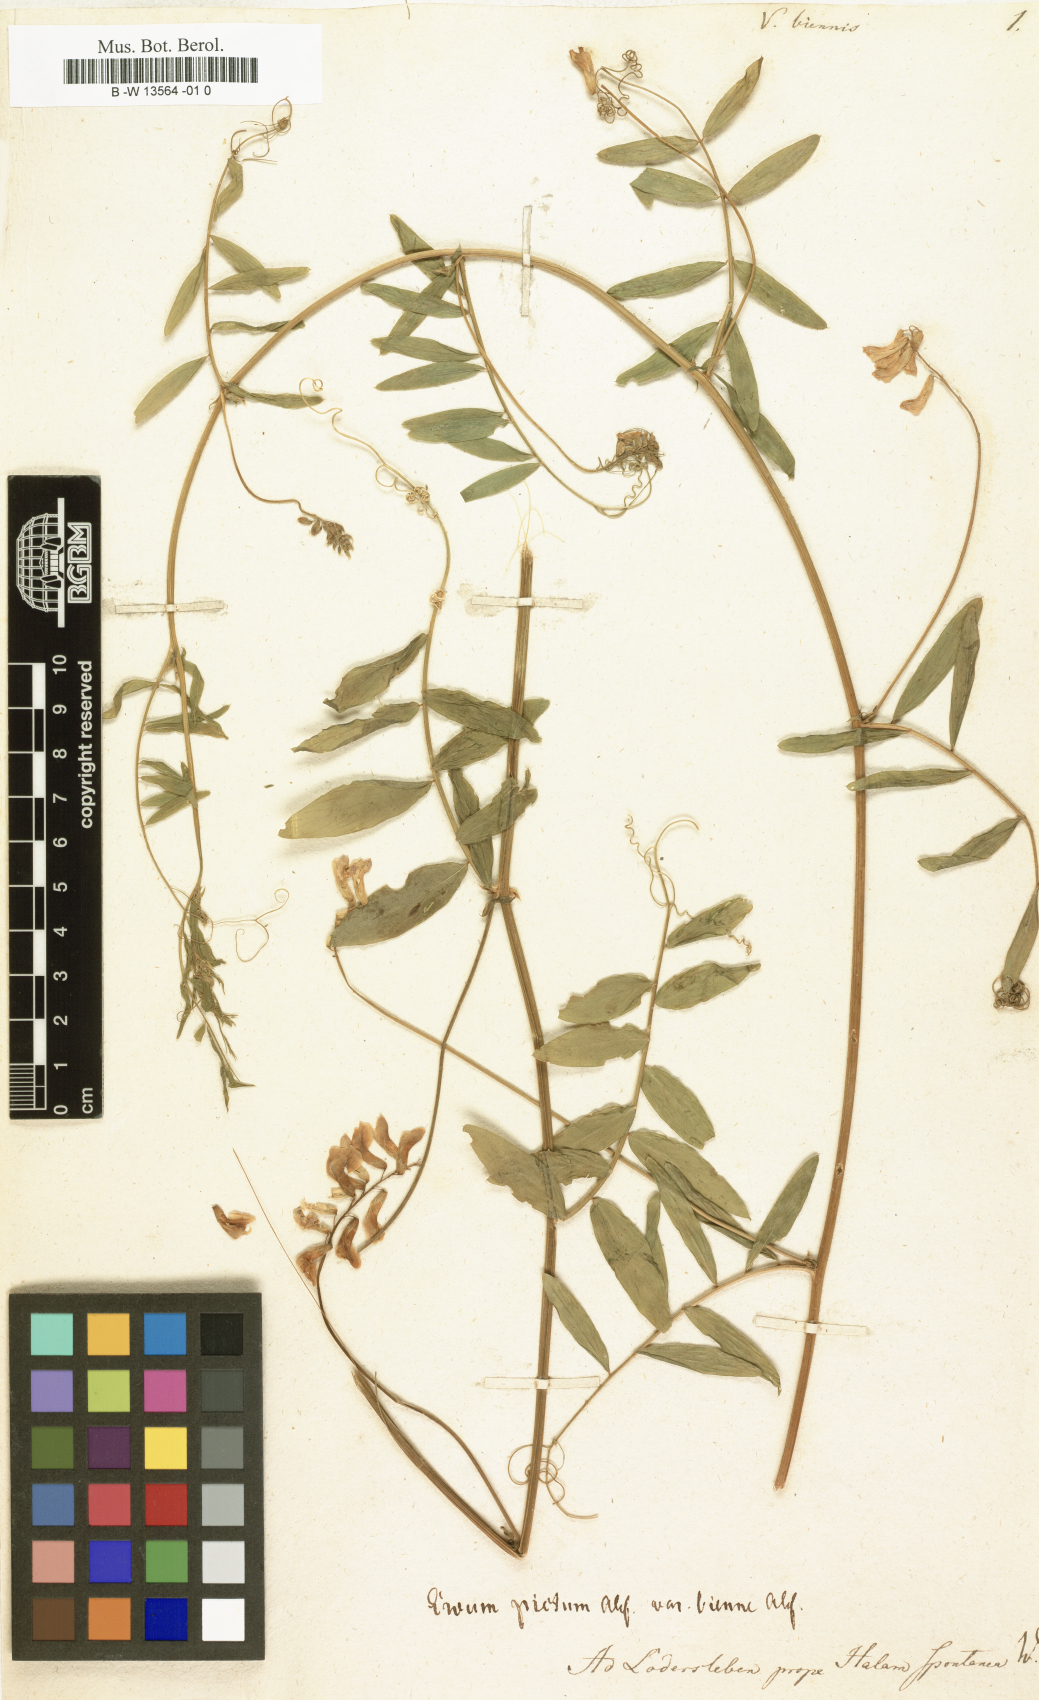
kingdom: Plantae
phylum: Tracheophyta
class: Magnoliopsida
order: Fabales
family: Fabaceae
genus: Vicia
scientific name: Vicia biennis
